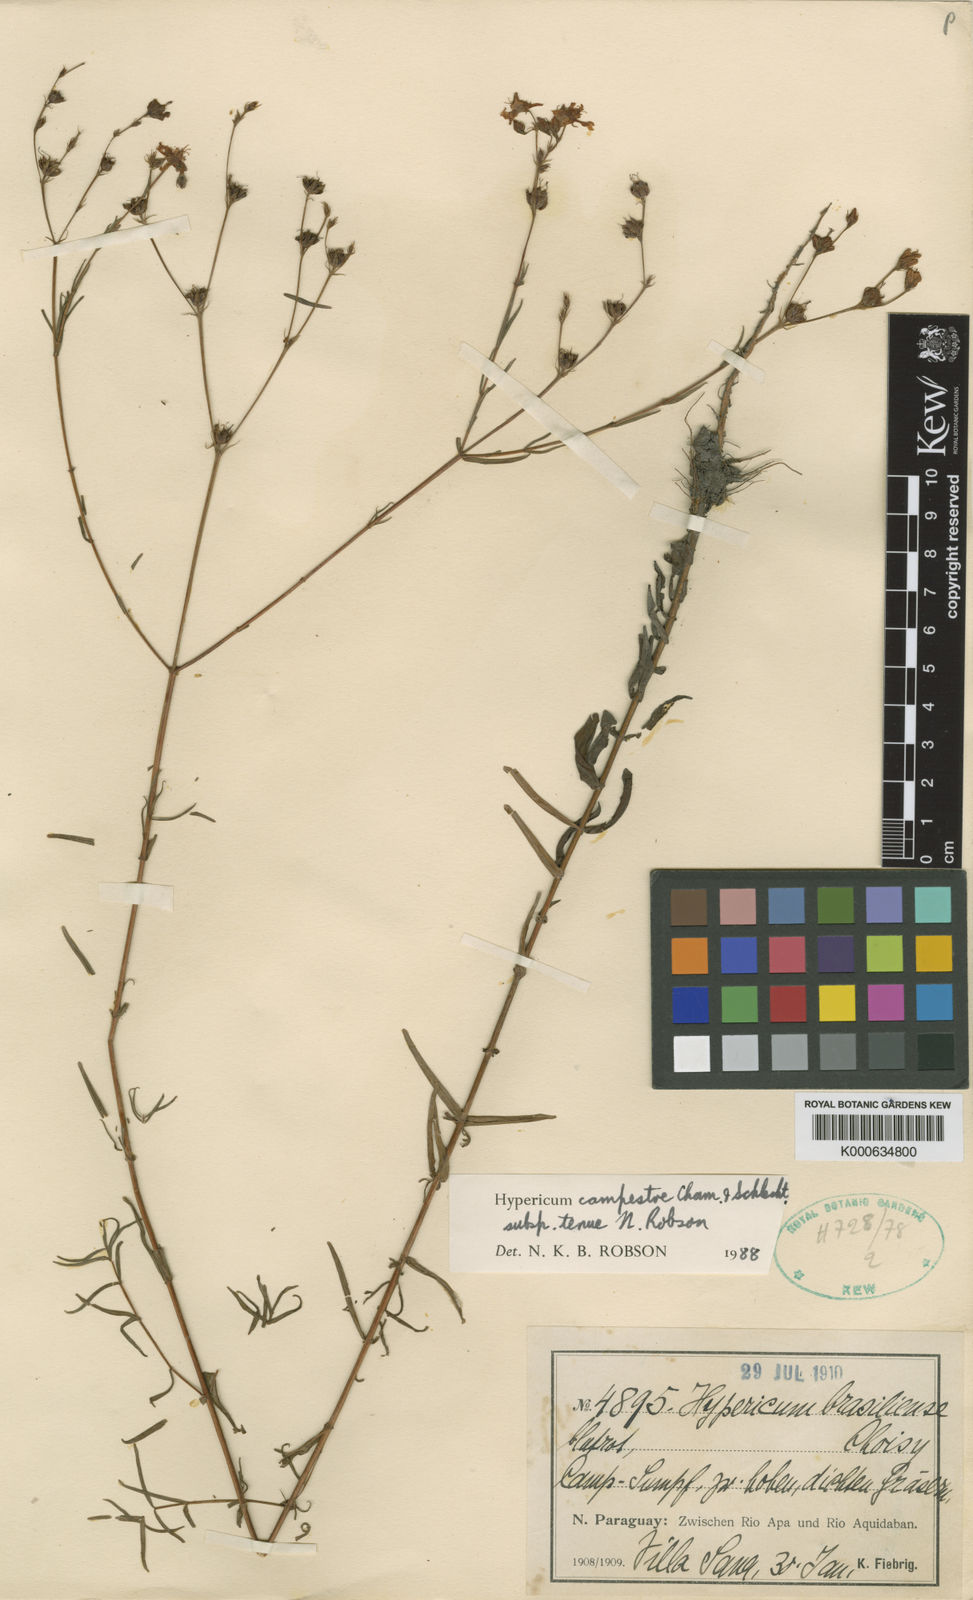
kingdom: Plantae
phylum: Tracheophyta
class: Magnoliopsida
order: Malpighiales
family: Hypericaceae
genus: Hypericum
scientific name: Hypericum campestre
